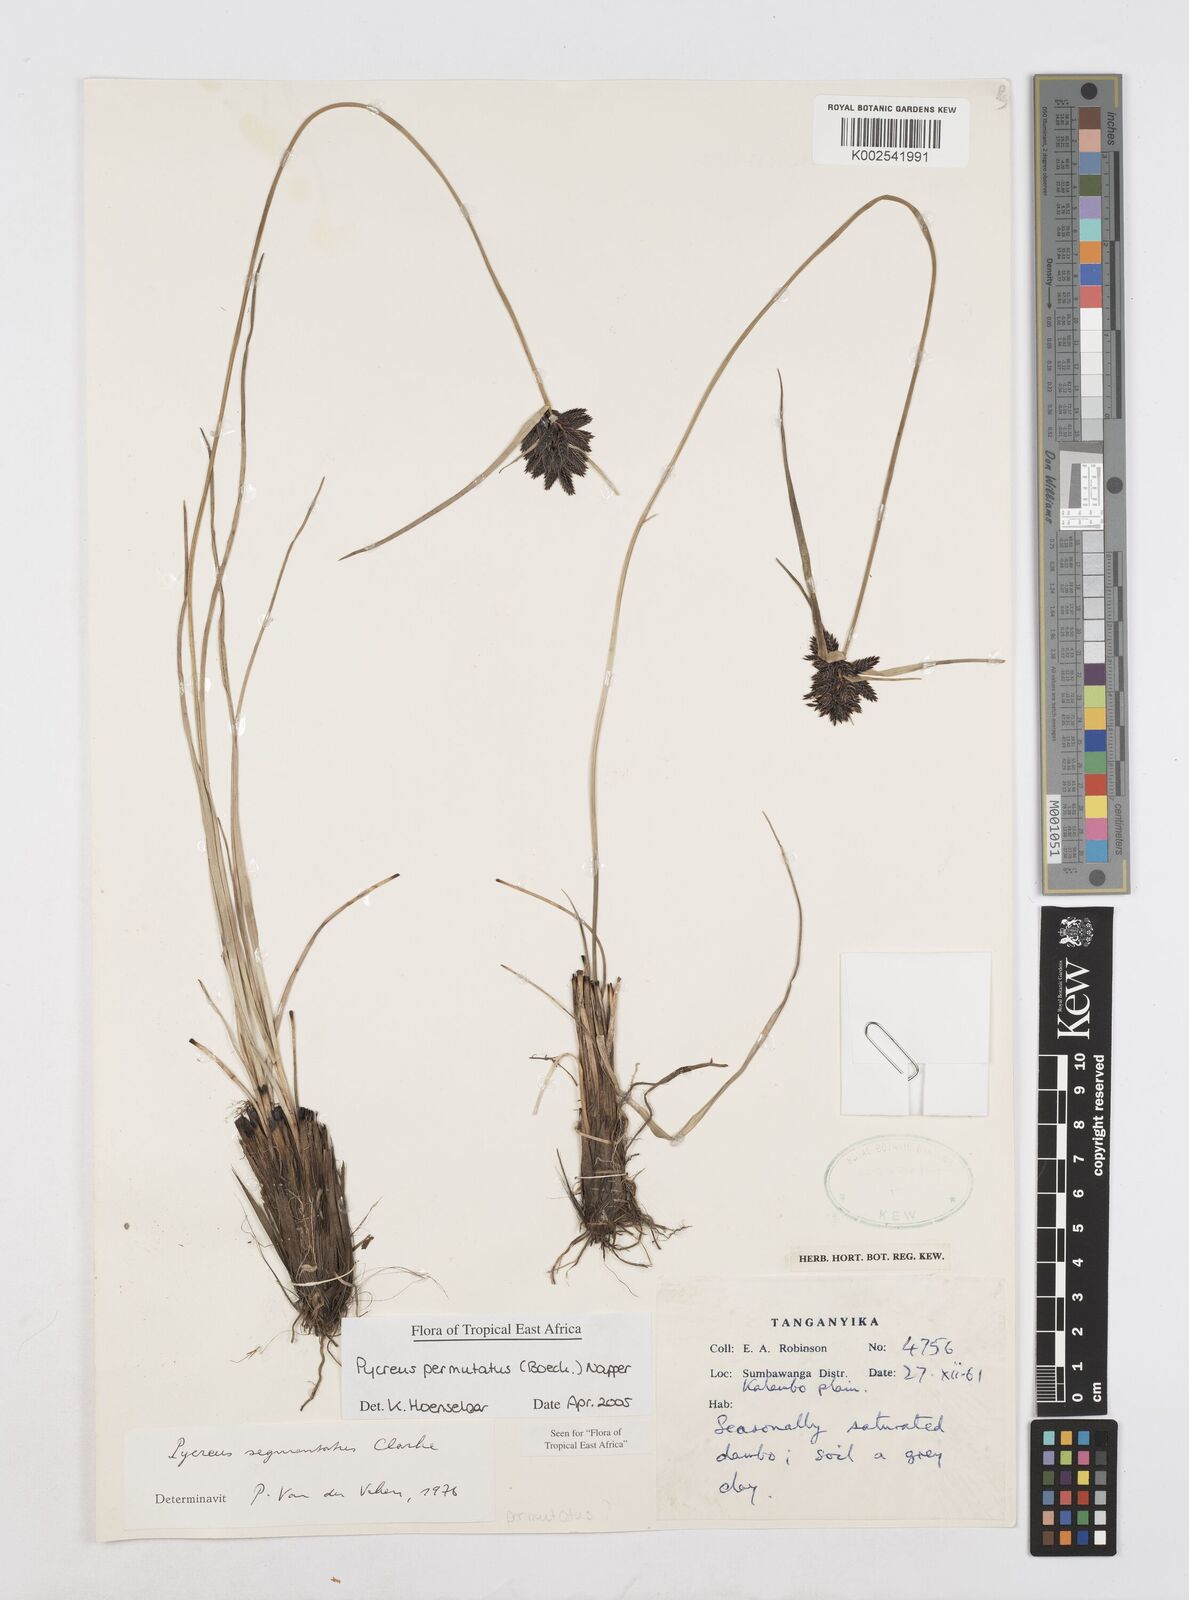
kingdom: Plantae
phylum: Tracheophyta
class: Liliopsida
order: Poales
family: Cyperaceae
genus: Cyperus
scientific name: Cyperus nigricans
